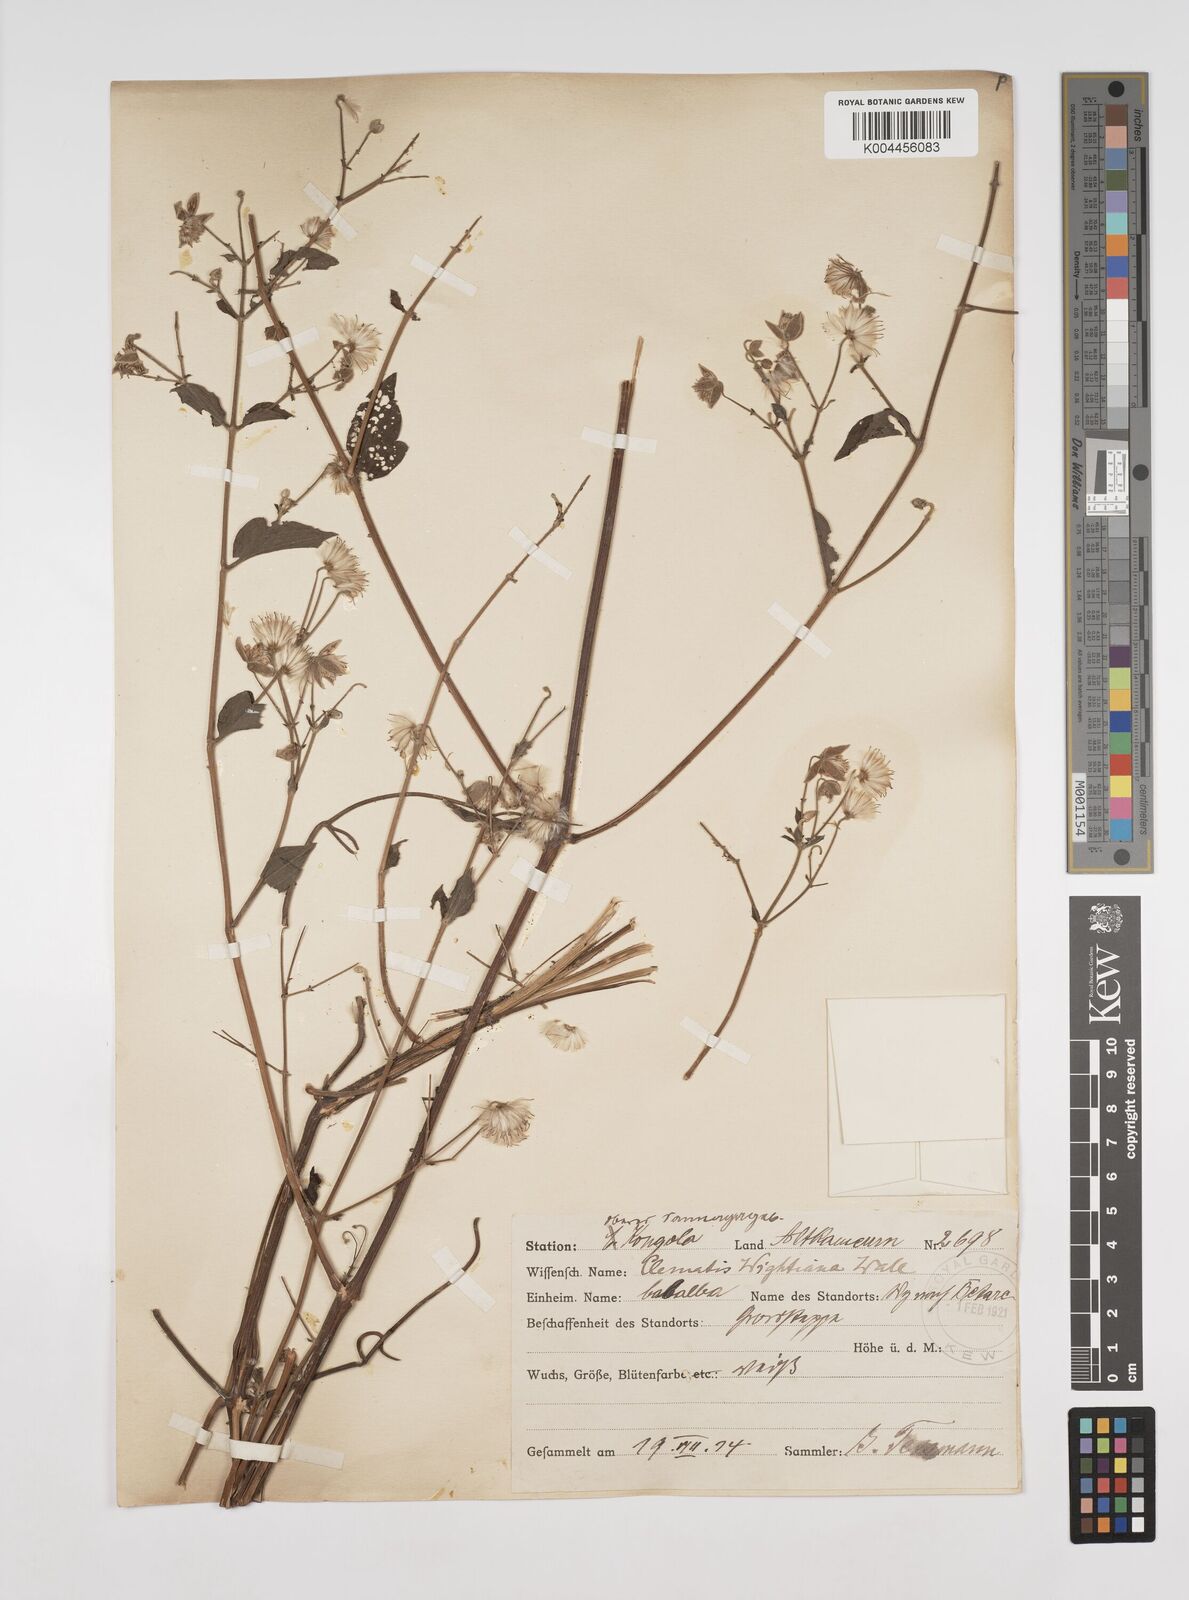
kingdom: Plantae
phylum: Tracheophyta
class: Magnoliopsida
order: Ranunculales
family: Ranunculaceae
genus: Clematis
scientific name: Clematis orientalis
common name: Oriental virgin's-bower
